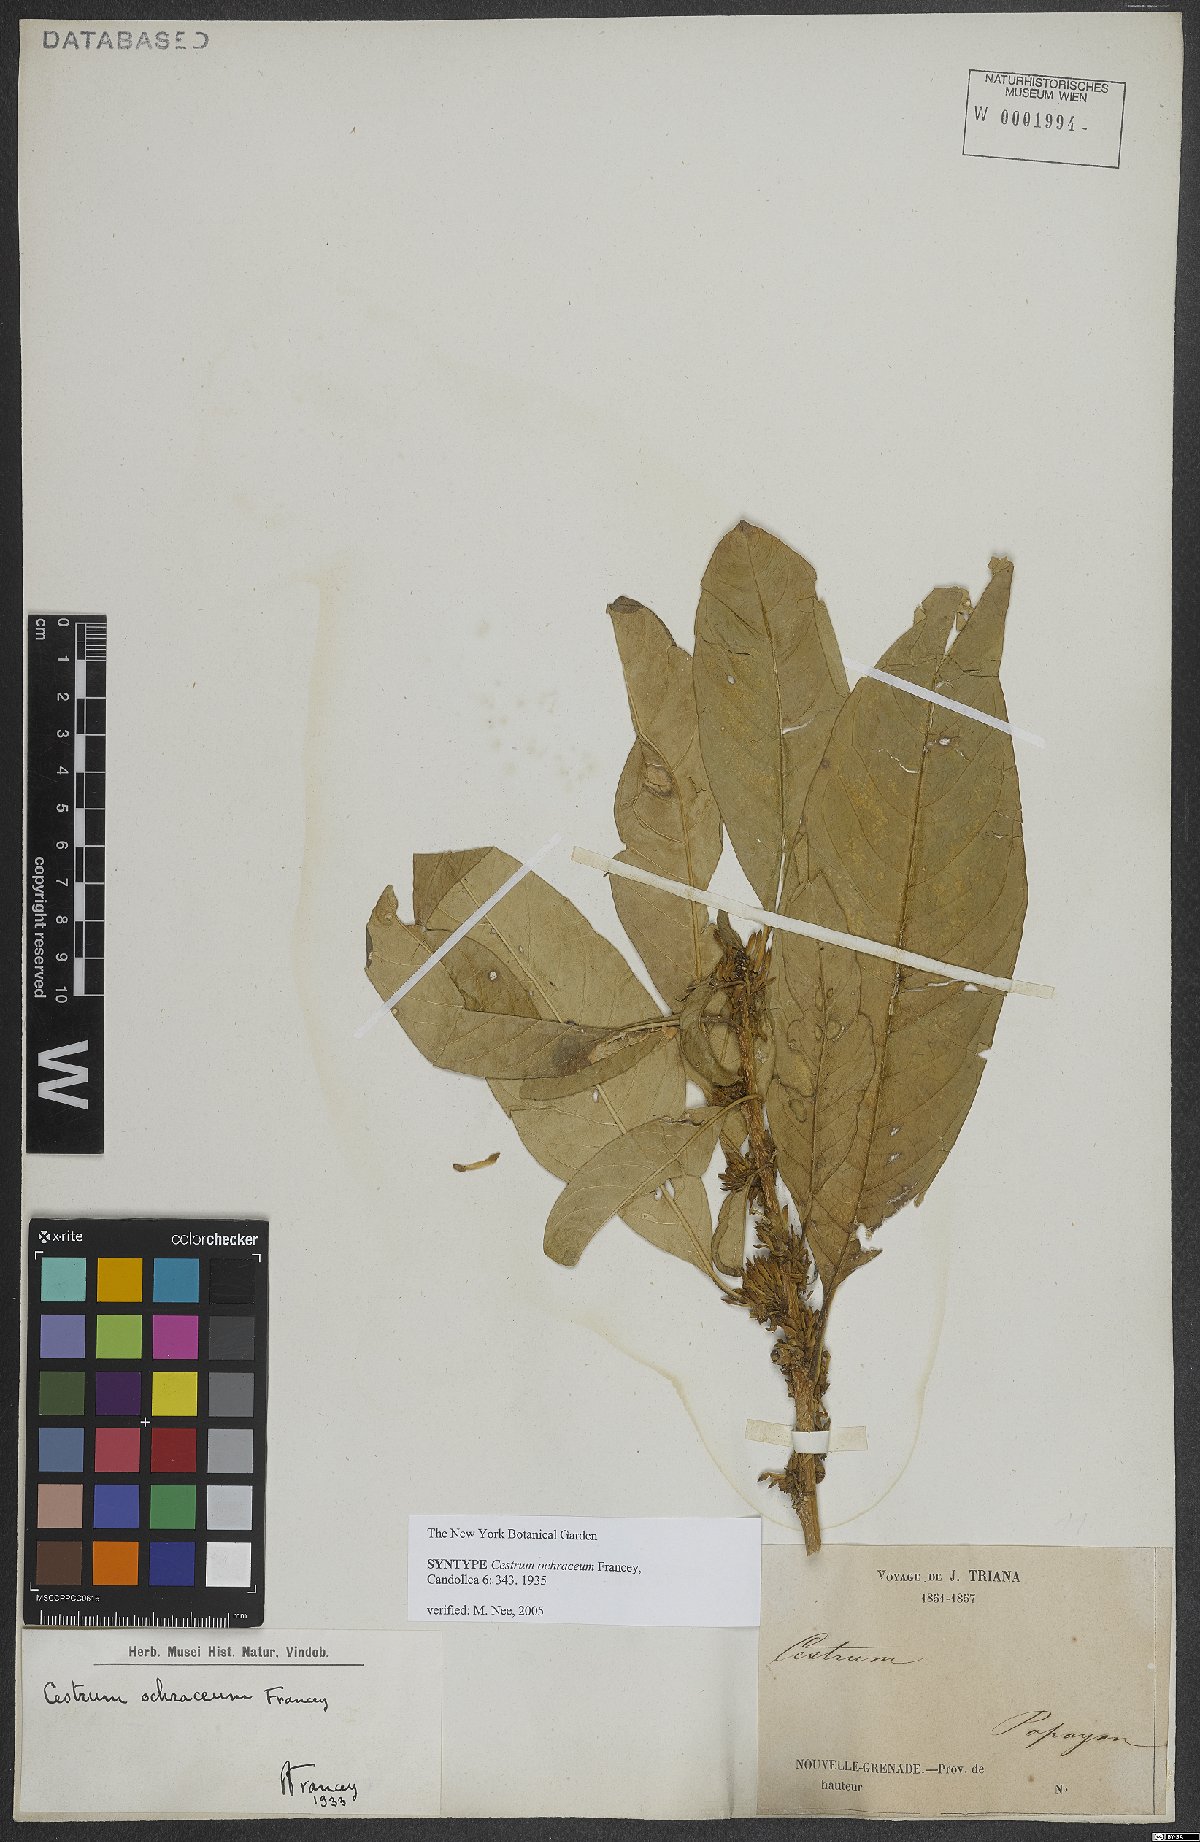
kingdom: Plantae
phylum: Tracheophyta
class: Magnoliopsida
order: Solanales
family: Solanaceae
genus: Cestrum
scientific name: Cestrum ochraceum
